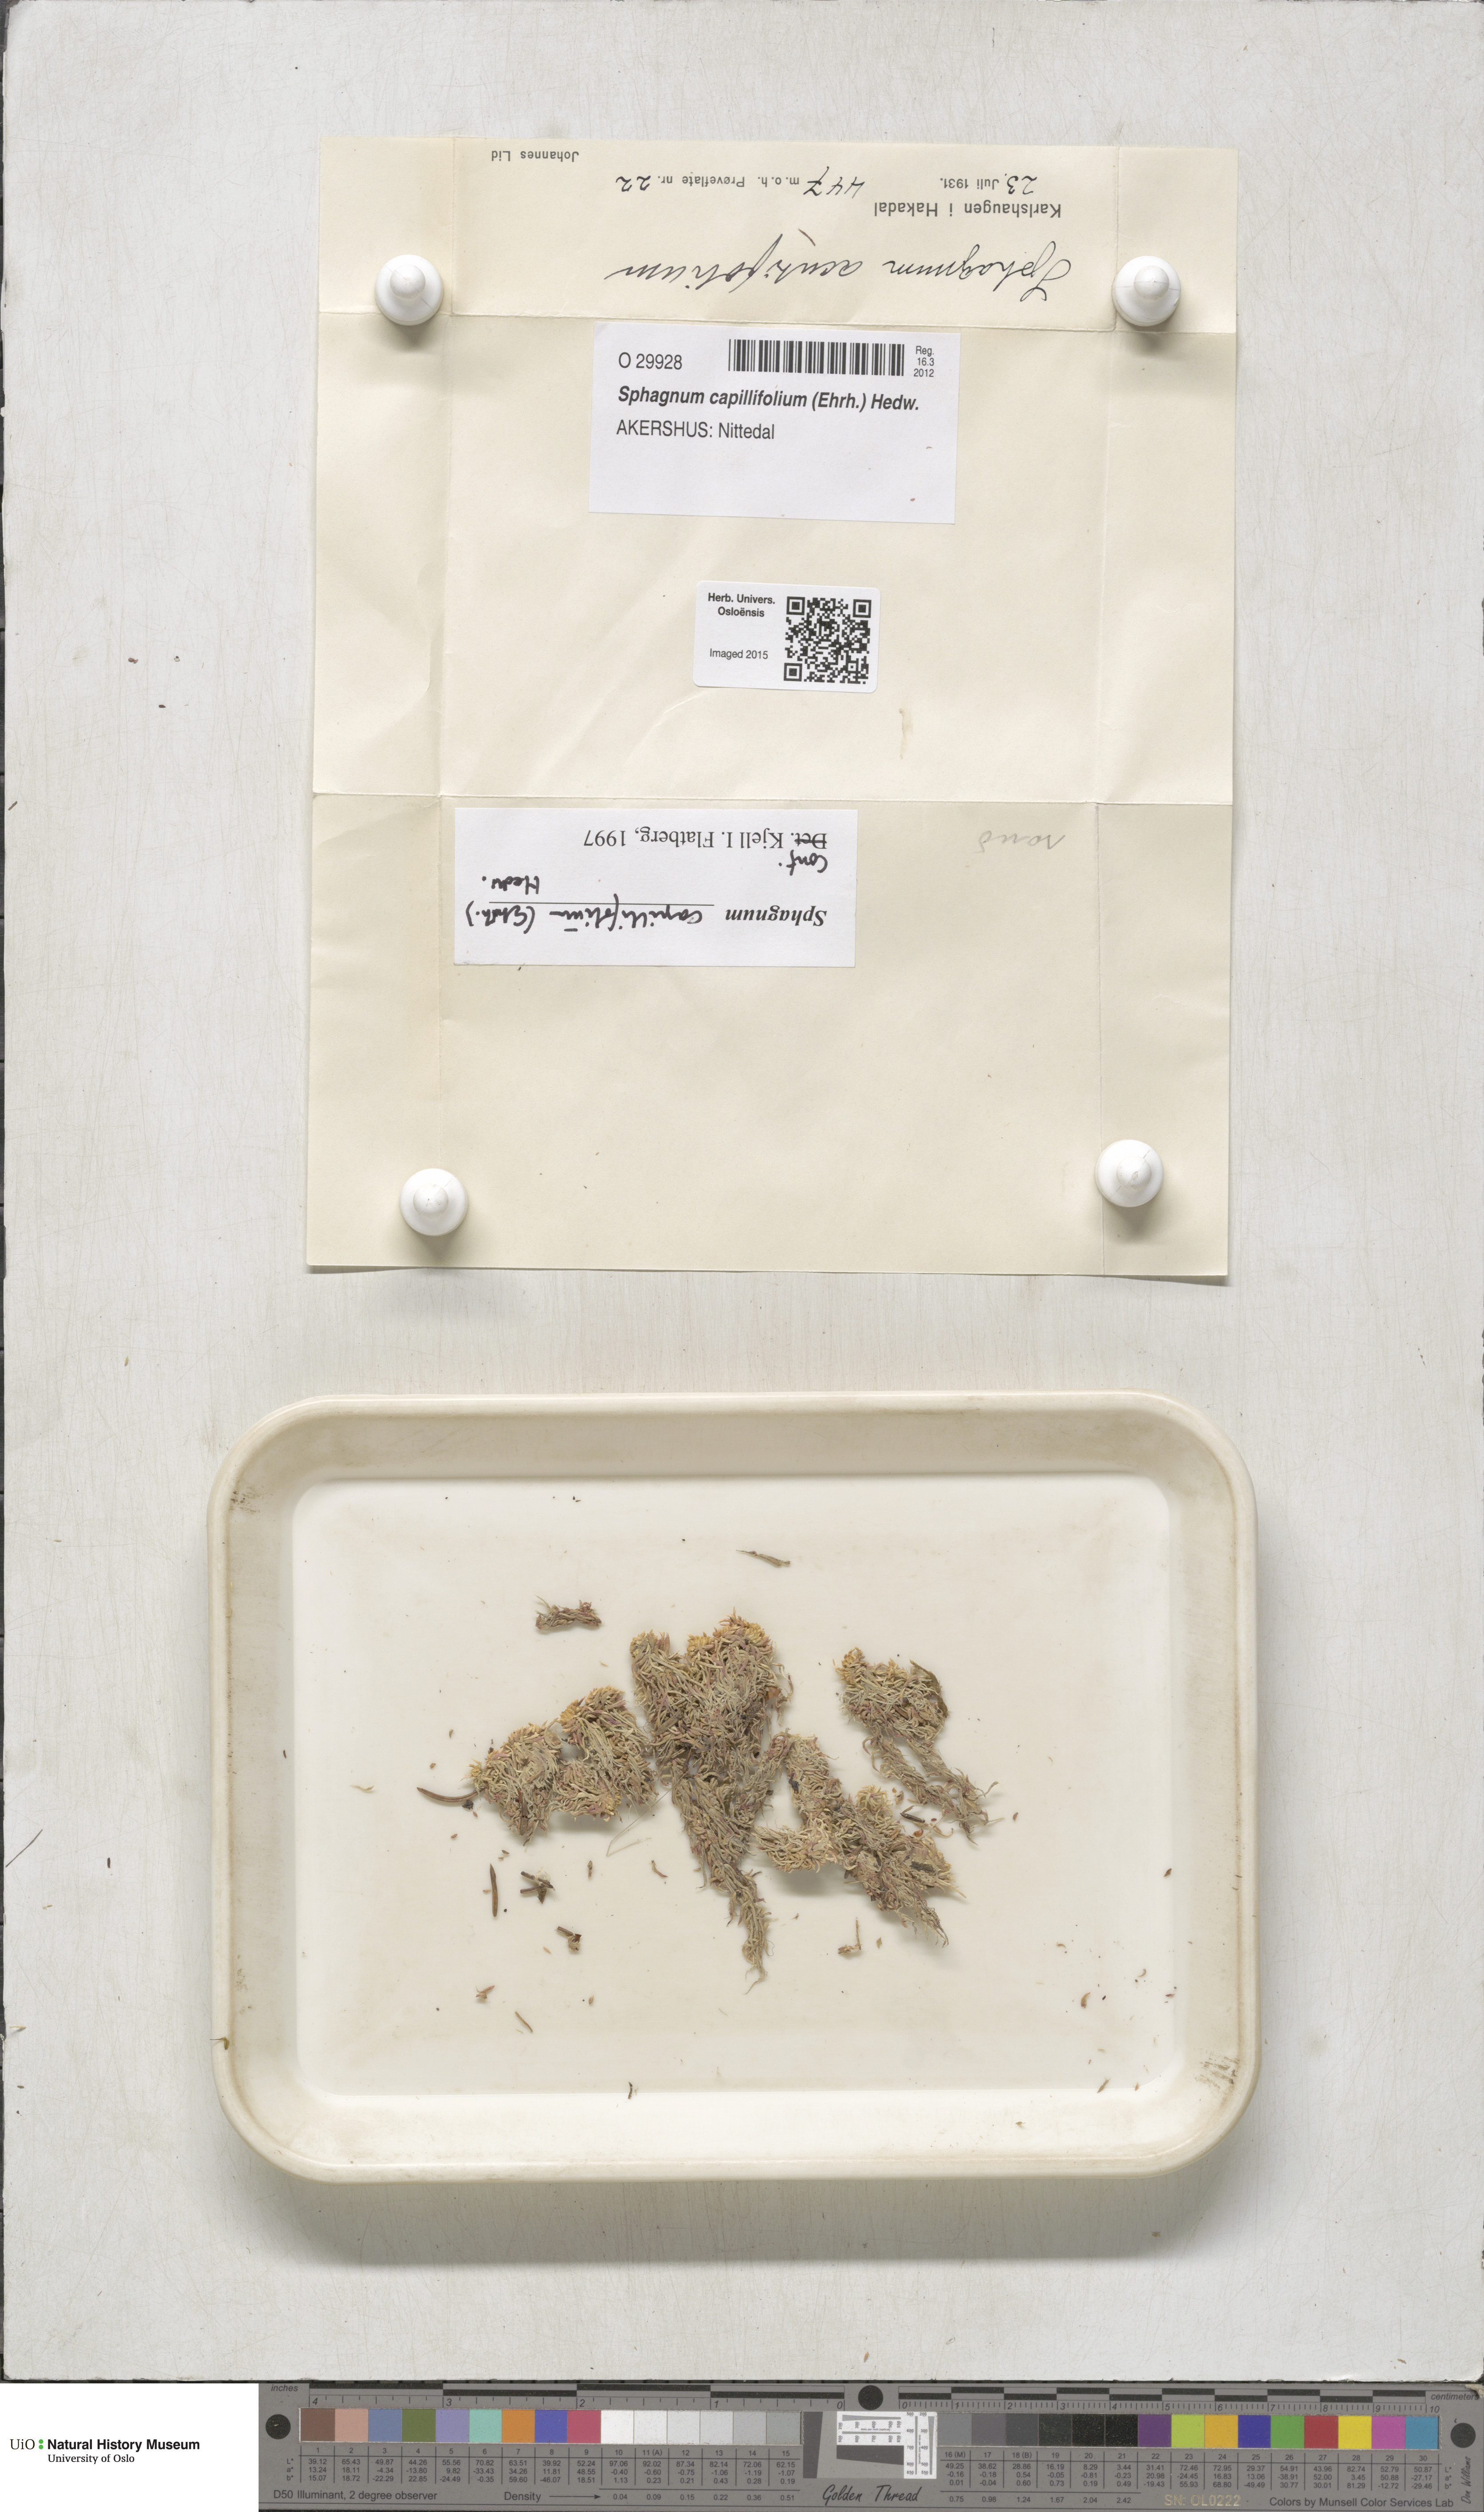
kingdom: Plantae
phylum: Bryophyta
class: Sphagnopsida
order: Sphagnales
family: Sphagnaceae
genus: Sphagnum
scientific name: Sphagnum capillifolium
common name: Small red peat moss
